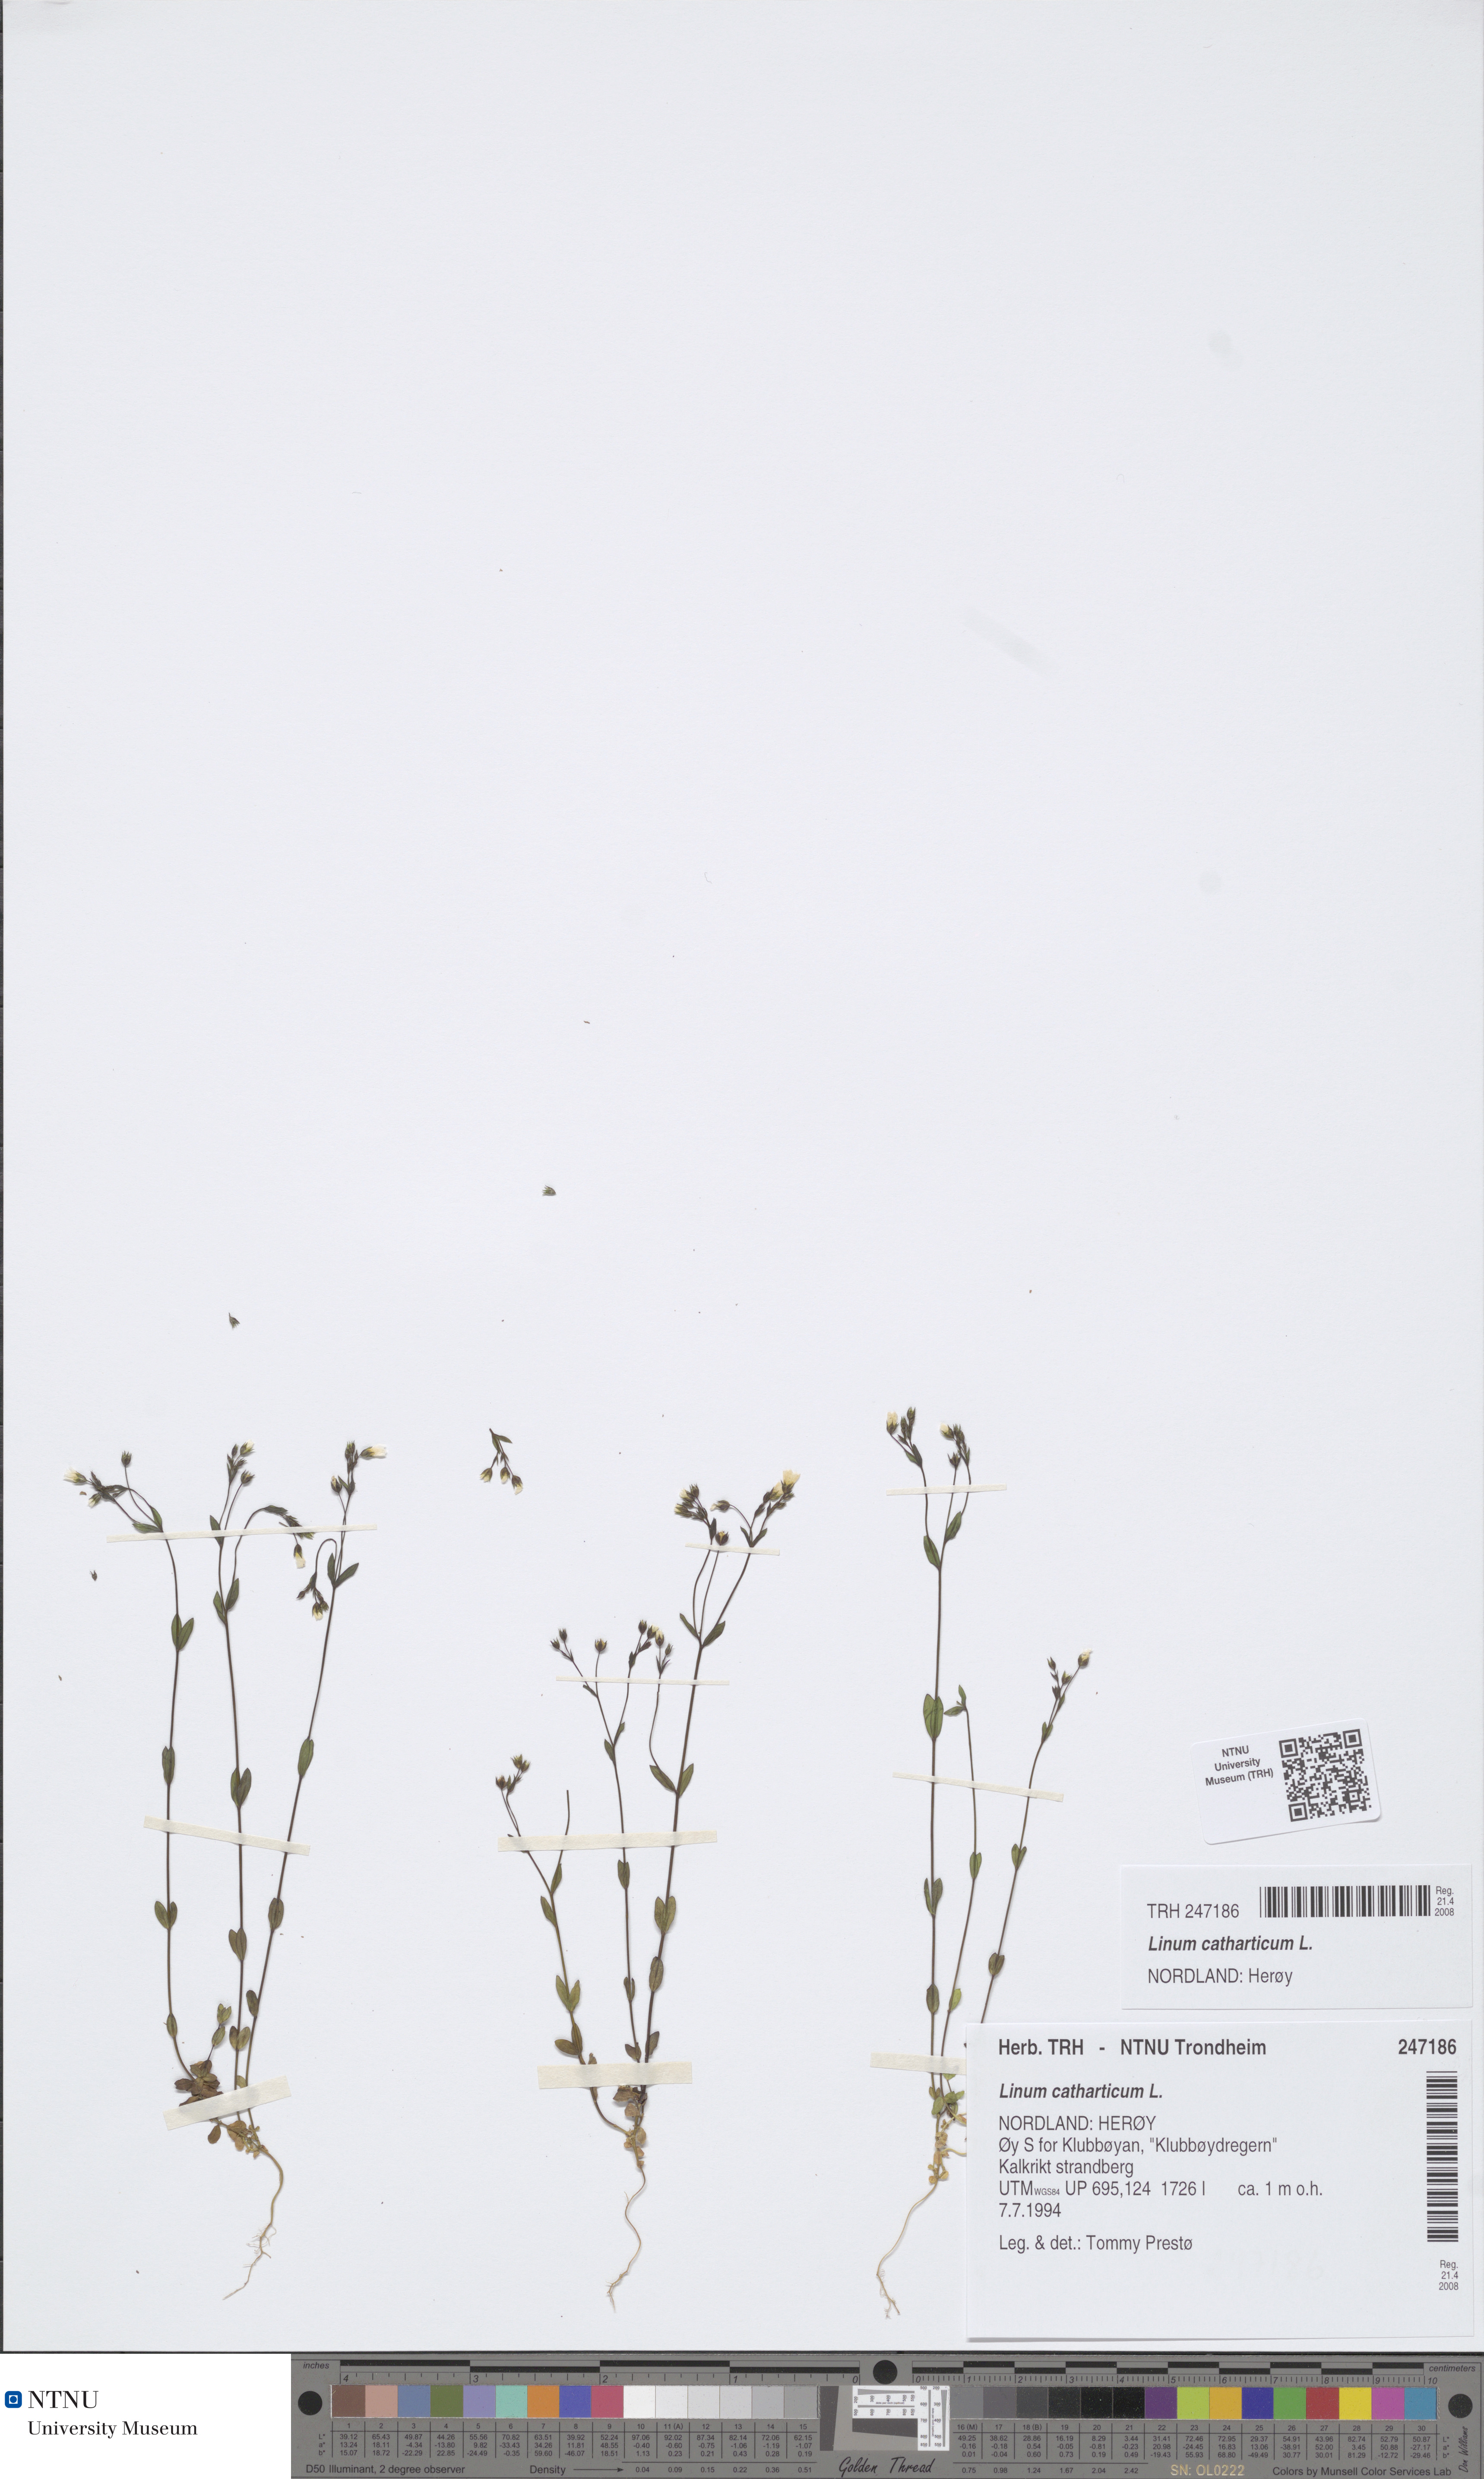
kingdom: Plantae
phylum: Tracheophyta
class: Magnoliopsida
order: Malpighiales
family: Linaceae
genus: Linum
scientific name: Linum catharticum
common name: Fairy flax
